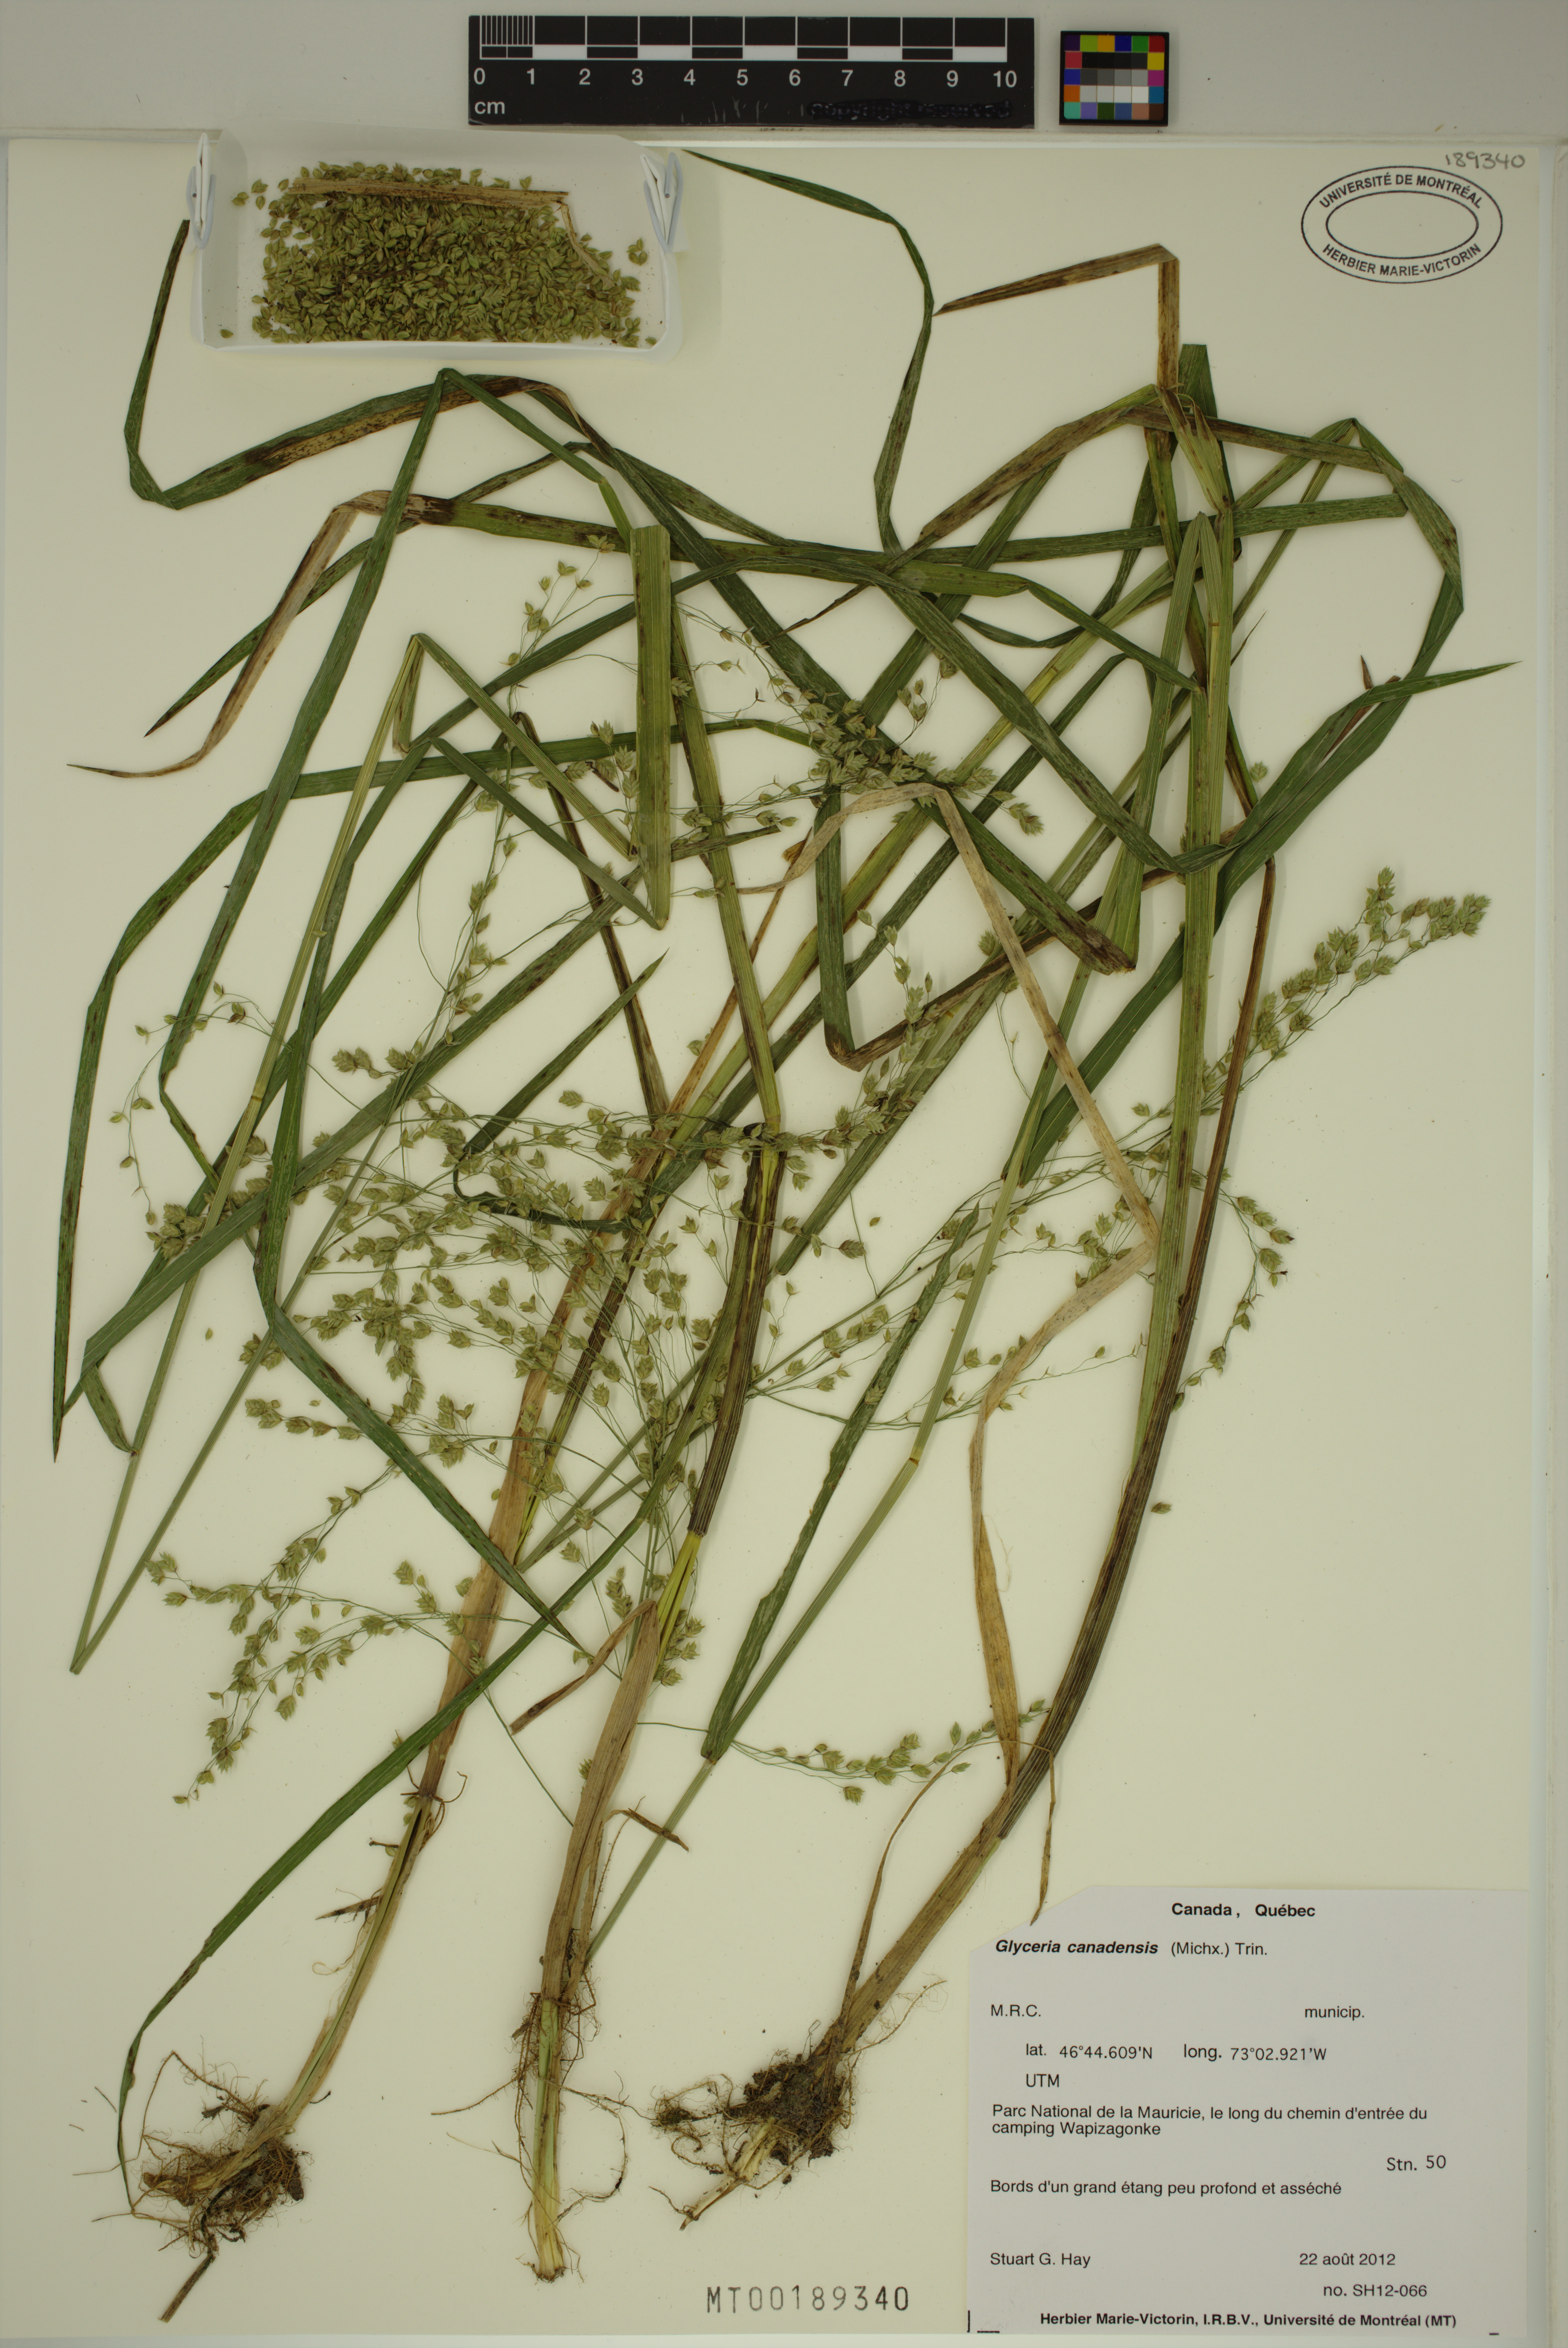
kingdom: Plantae
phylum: Tracheophyta
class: Liliopsida
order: Poales
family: Poaceae
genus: Glyceria
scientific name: Glyceria canadensis
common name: Canada mannagrass
